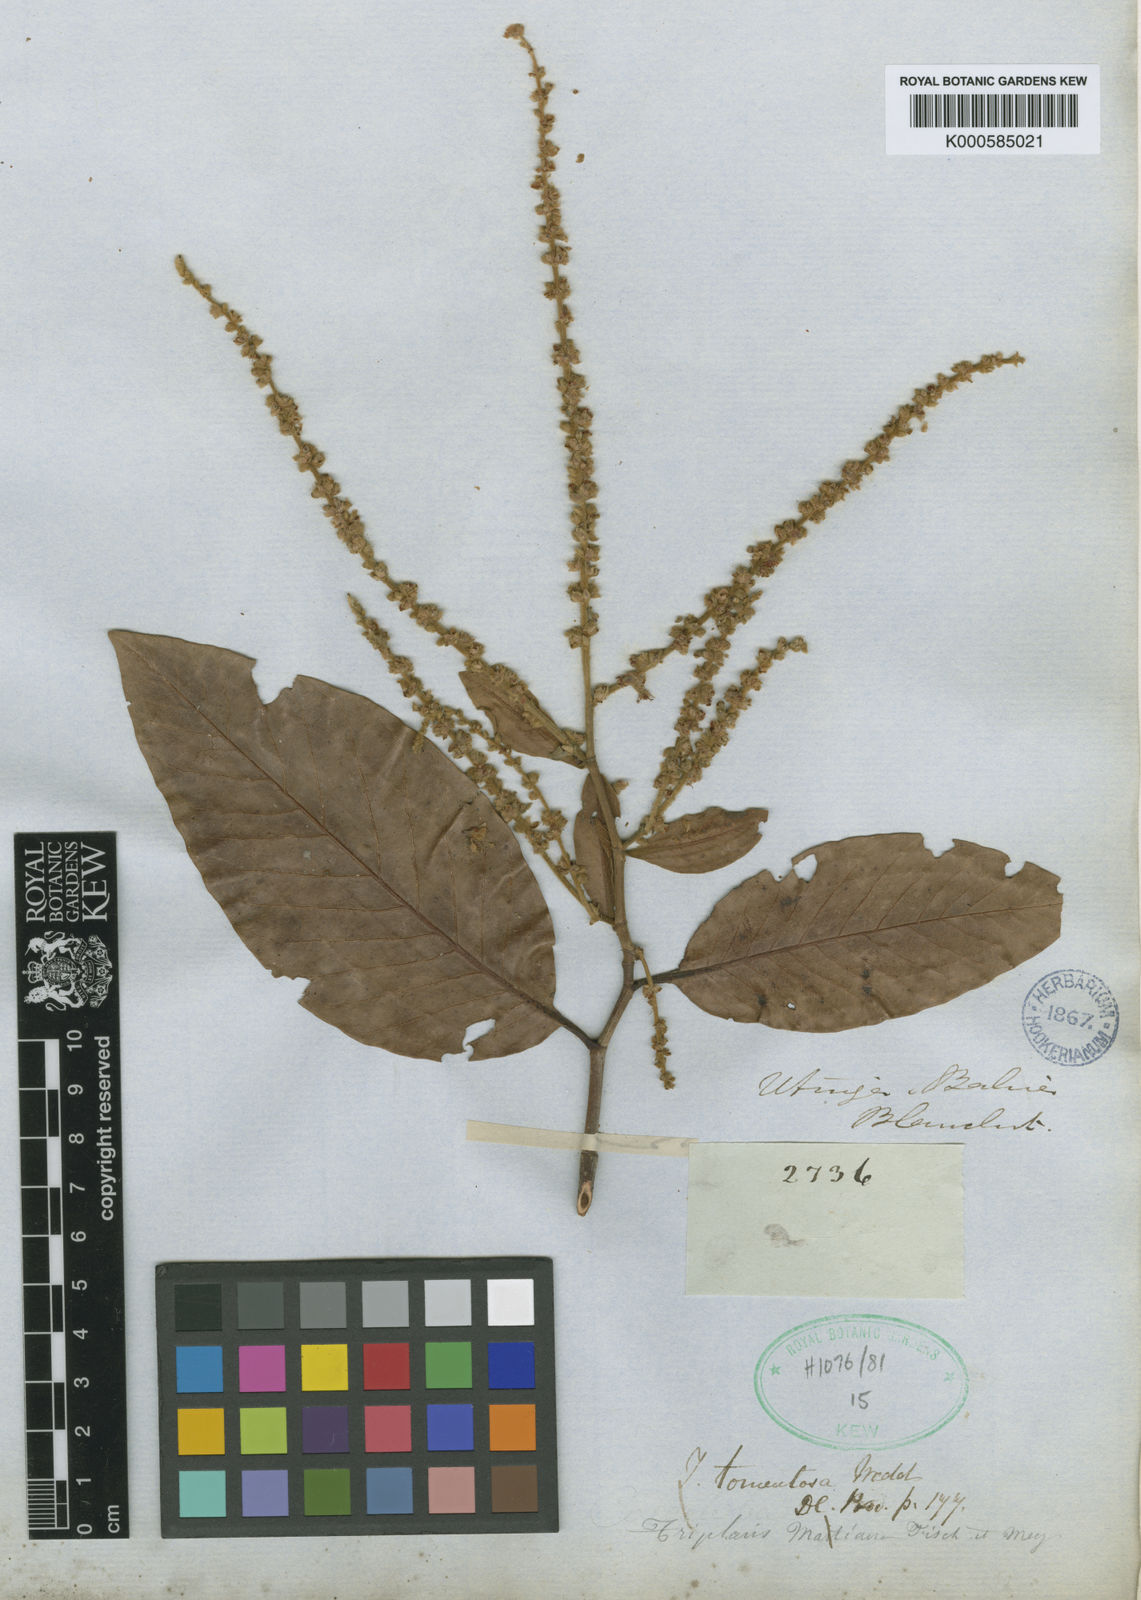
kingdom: Plantae
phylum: Tracheophyta
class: Magnoliopsida
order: Caryophyllales
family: Polygonaceae
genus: Triplaris
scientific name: Triplaris gardneriana
